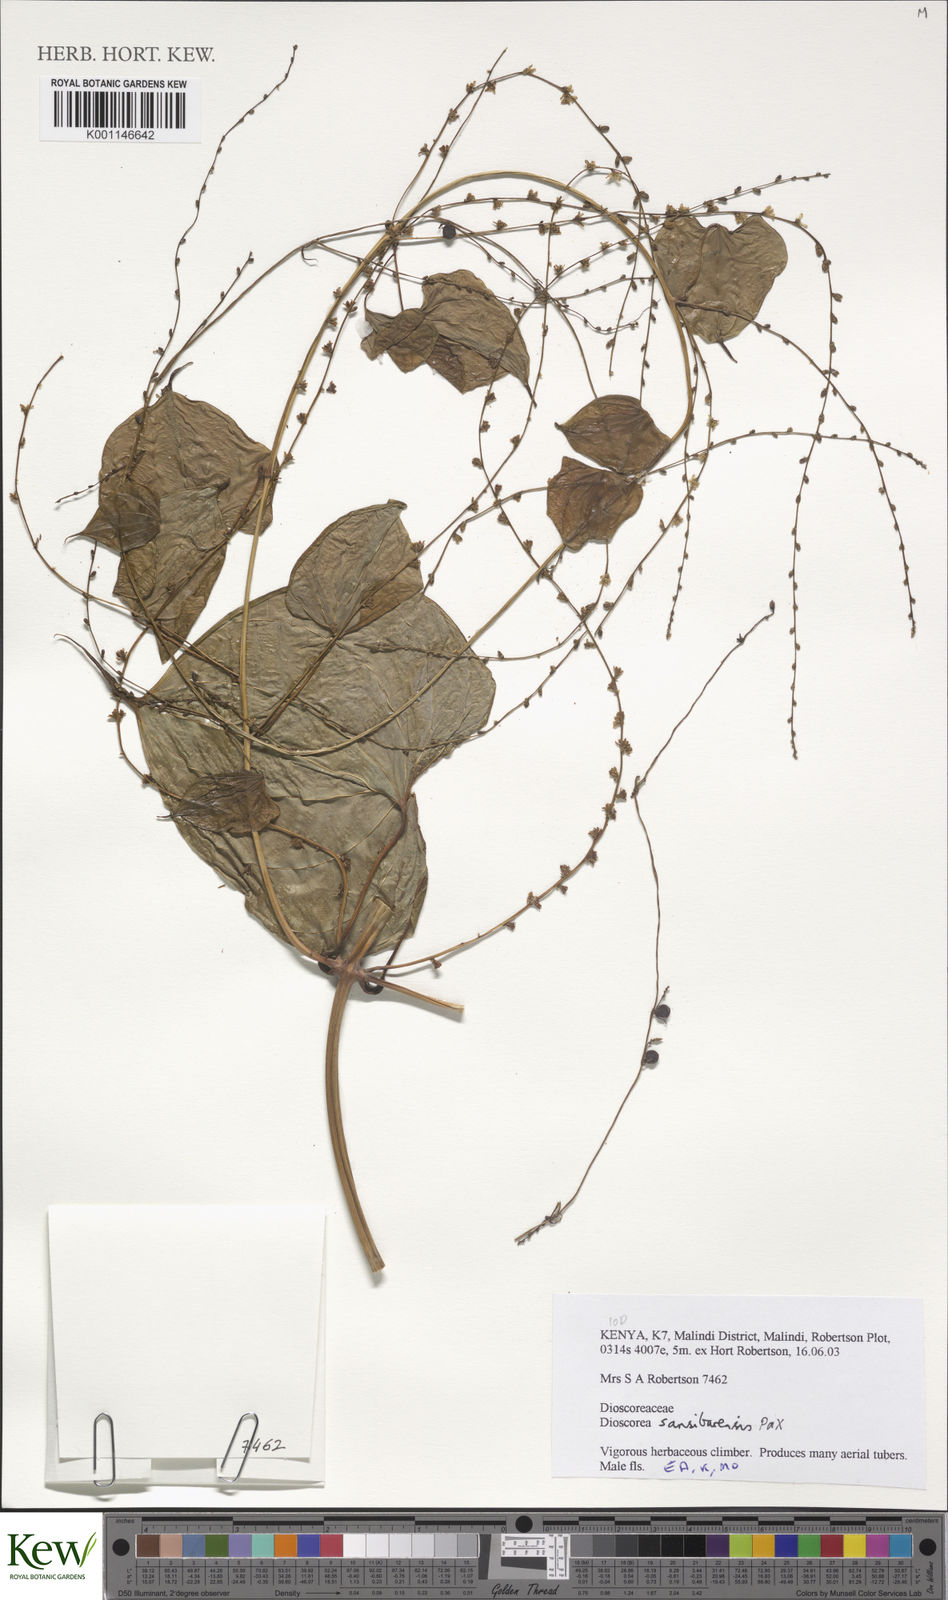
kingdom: Plantae
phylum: Tracheophyta
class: Liliopsida
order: Dioscoreales
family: Dioscoreaceae
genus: Dioscorea
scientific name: Dioscorea sansibarensis
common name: Zanzibar yam
